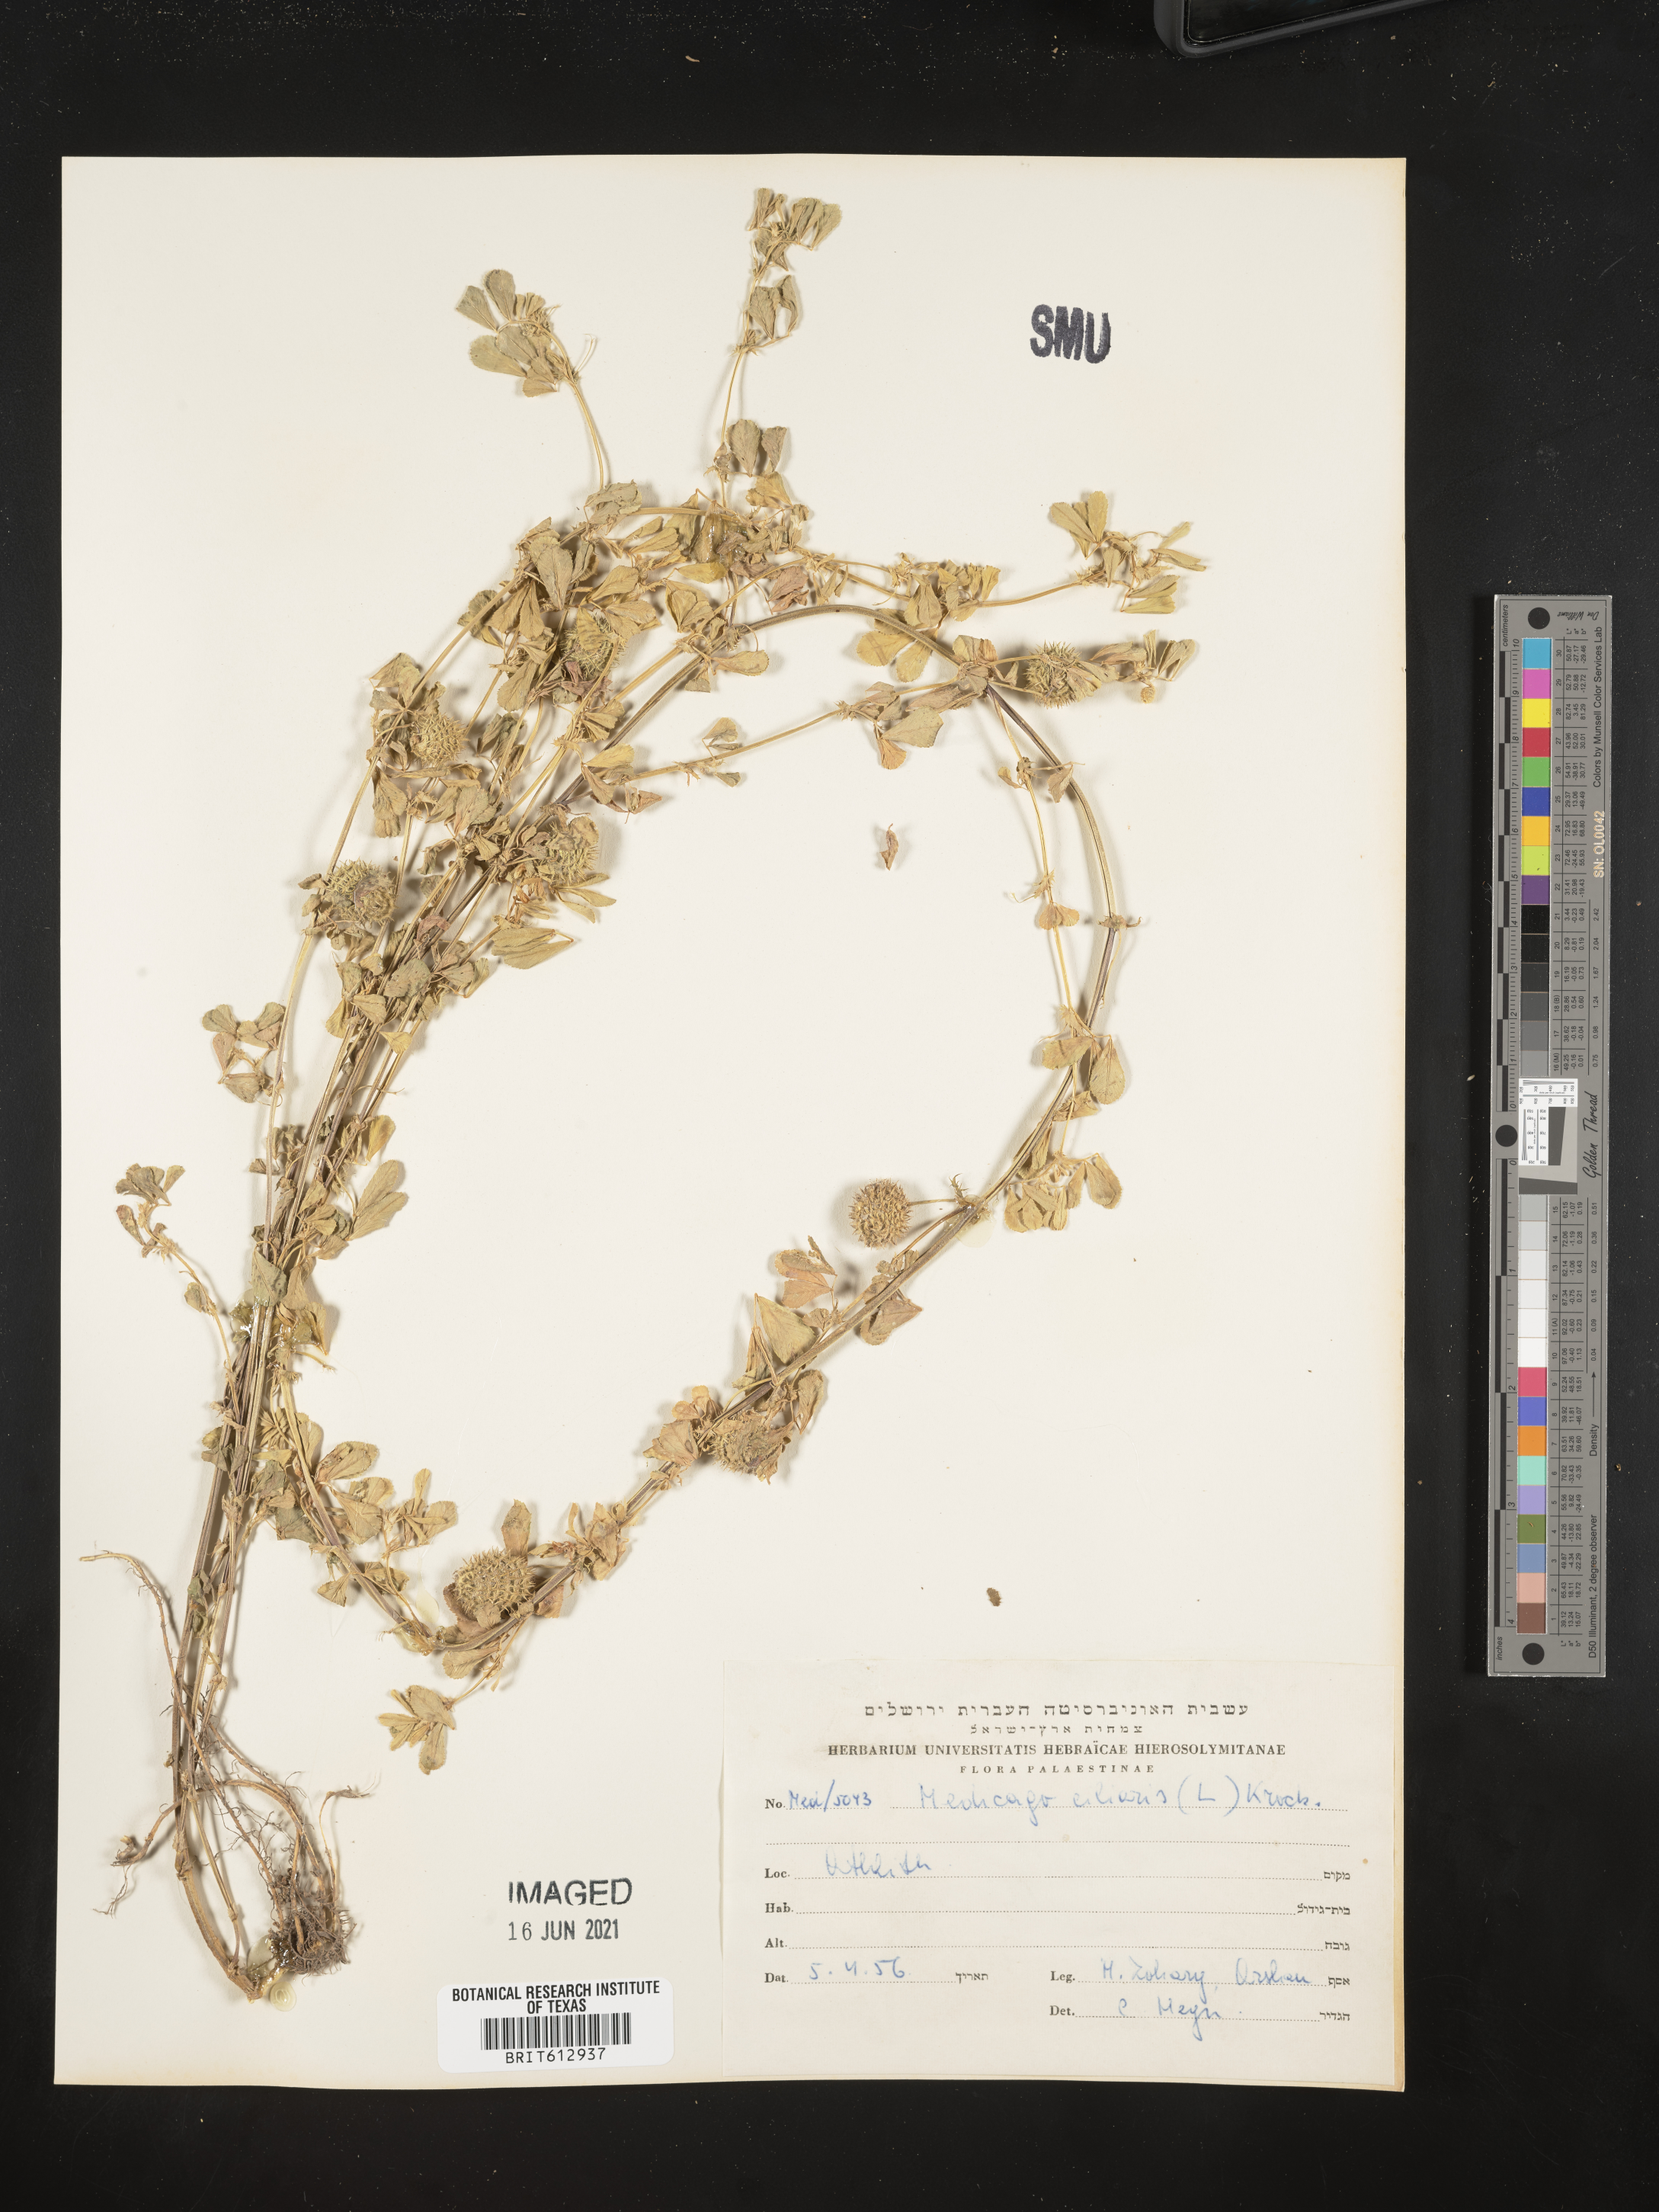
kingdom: Plantae
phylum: Tracheophyta
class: Magnoliopsida
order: Fabales
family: Fabaceae
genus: Medicago
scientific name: Medicago ciliaris
